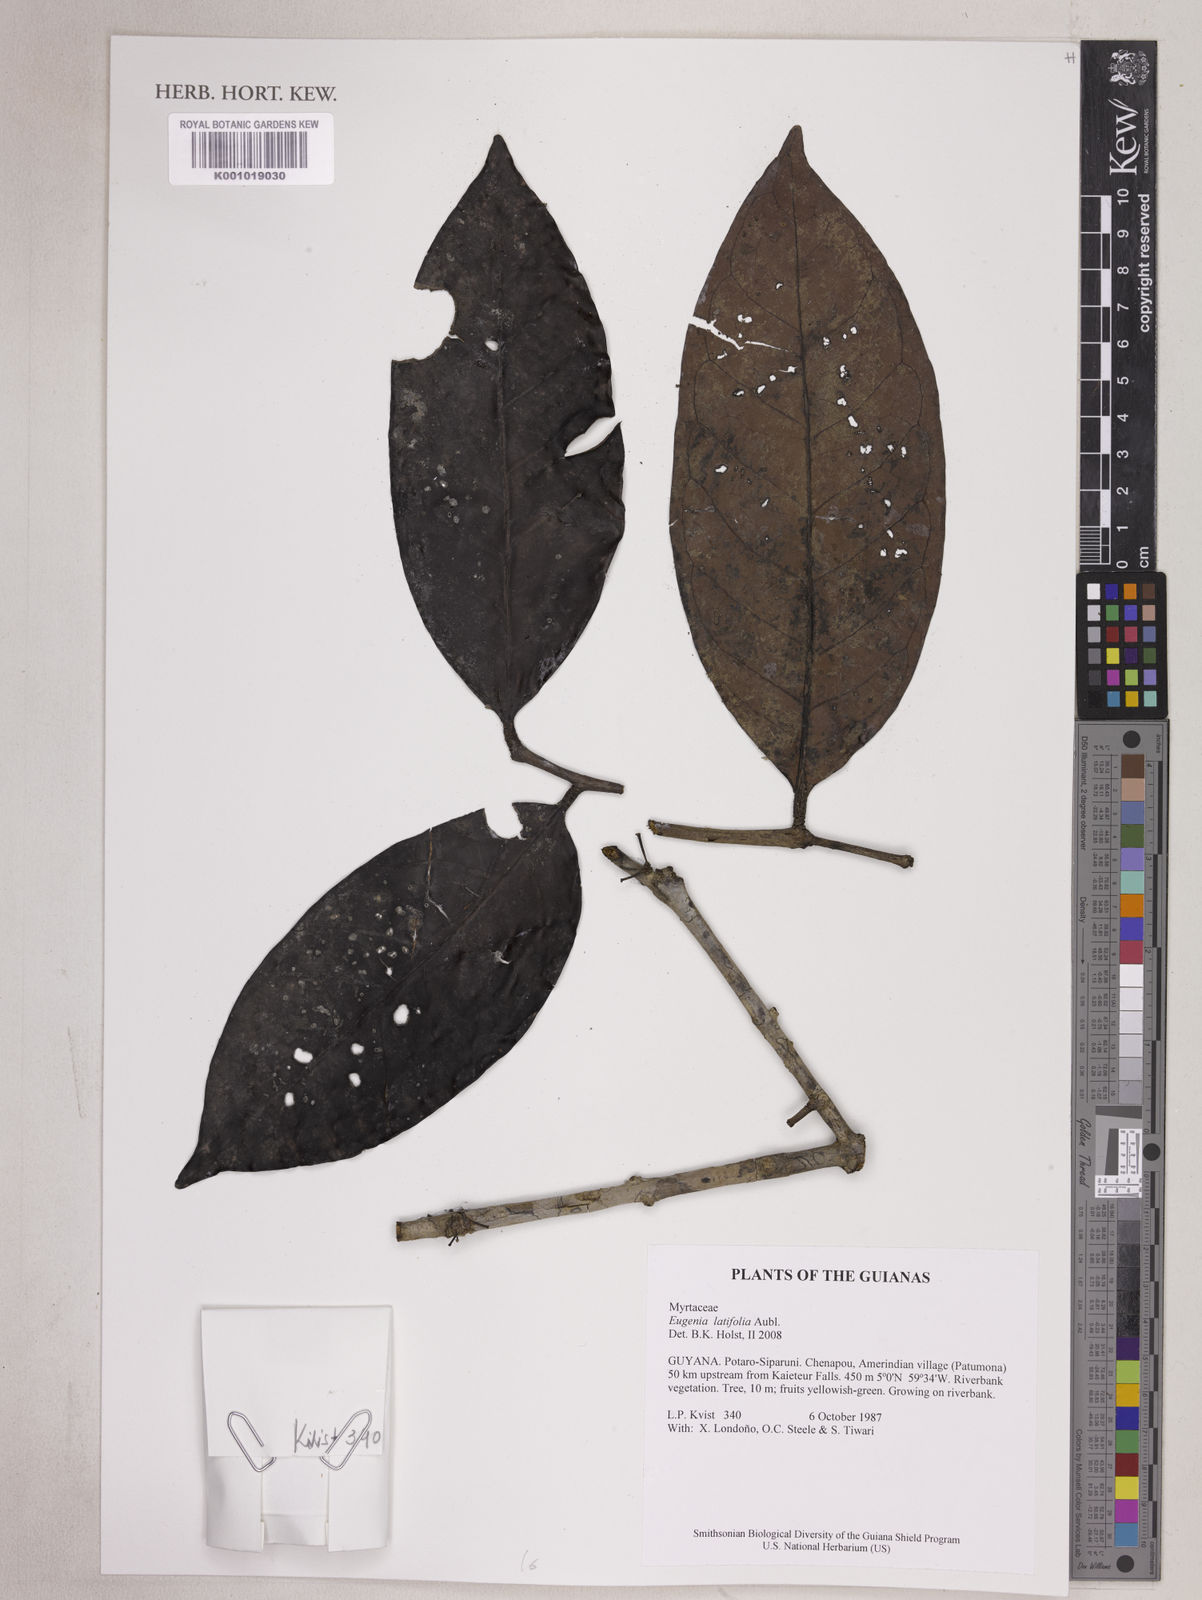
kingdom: Plantae
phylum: Tracheophyta
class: Magnoliopsida
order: Myrtales
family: Myrtaceae
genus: Eugenia
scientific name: Eugenia latifolia
